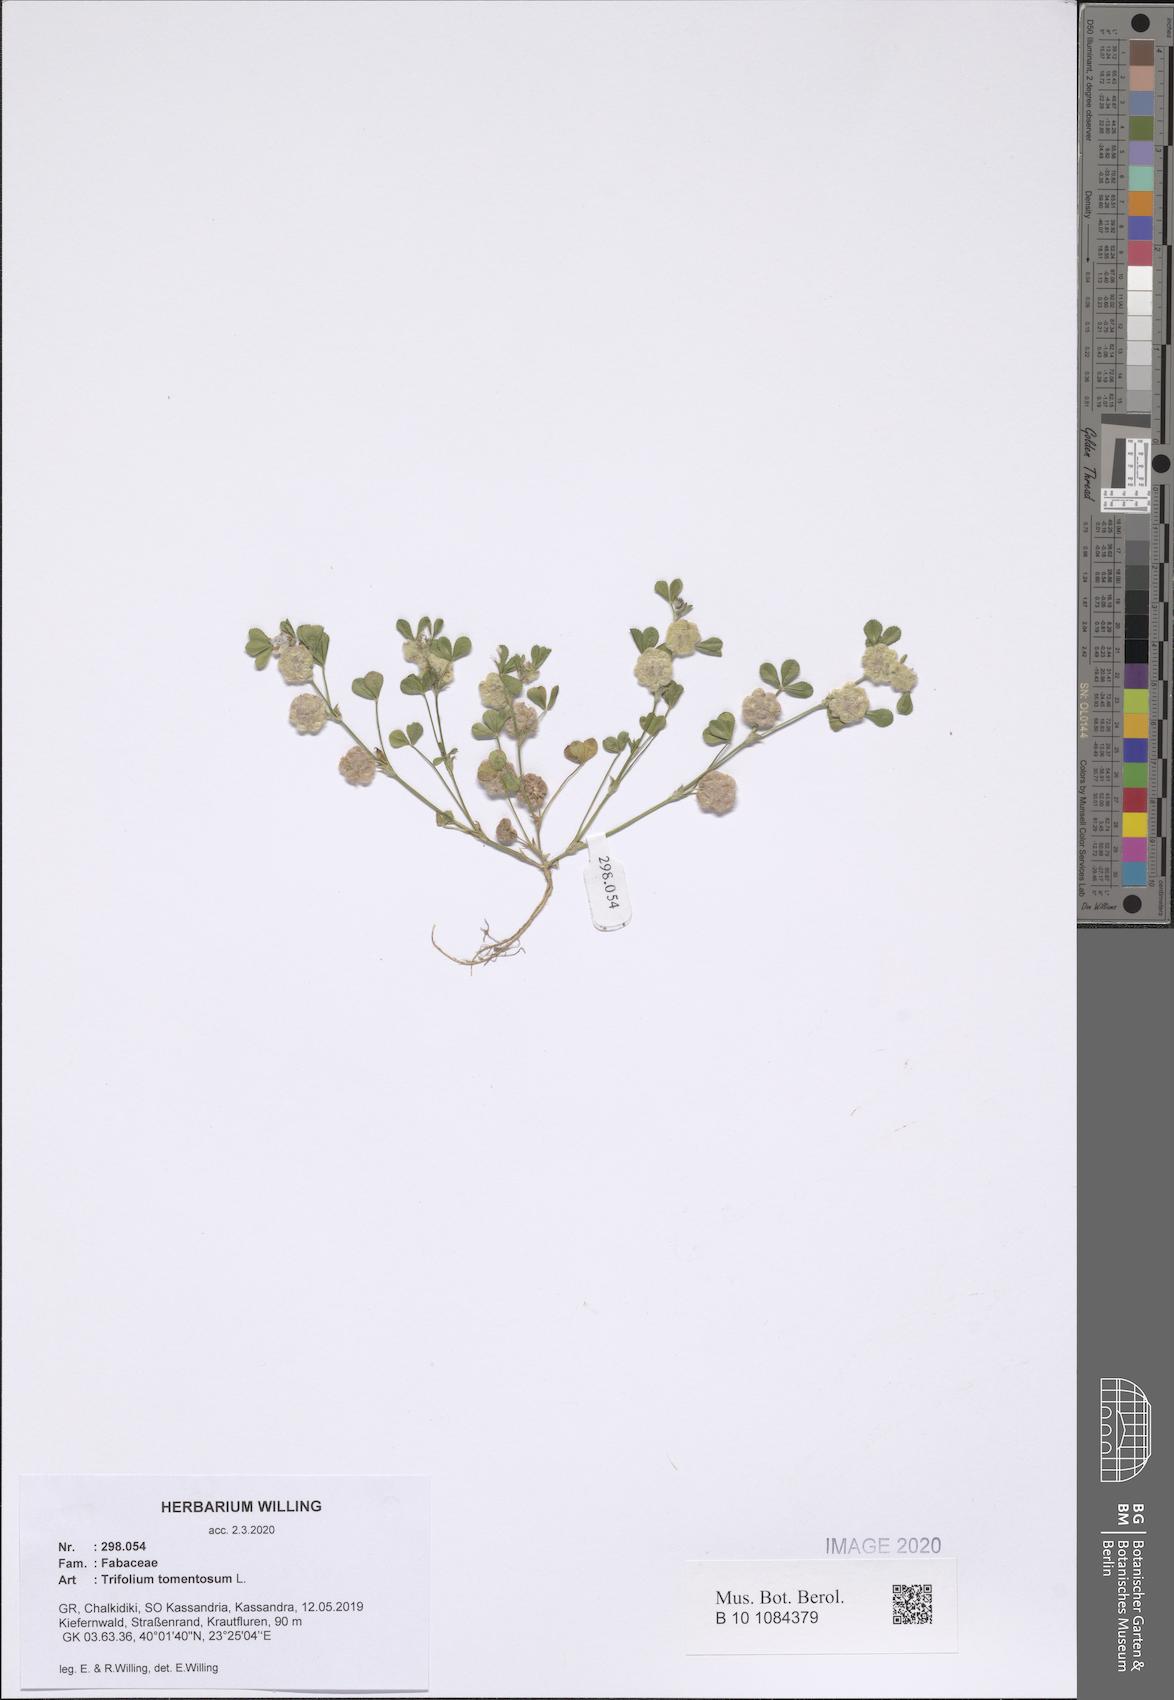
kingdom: Plantae
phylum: Tracheophyta
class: Magnoliopsida
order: Fabales
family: Fabaceae
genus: Trifolium
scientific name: Trifolium tomentosum
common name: Woolly clover
